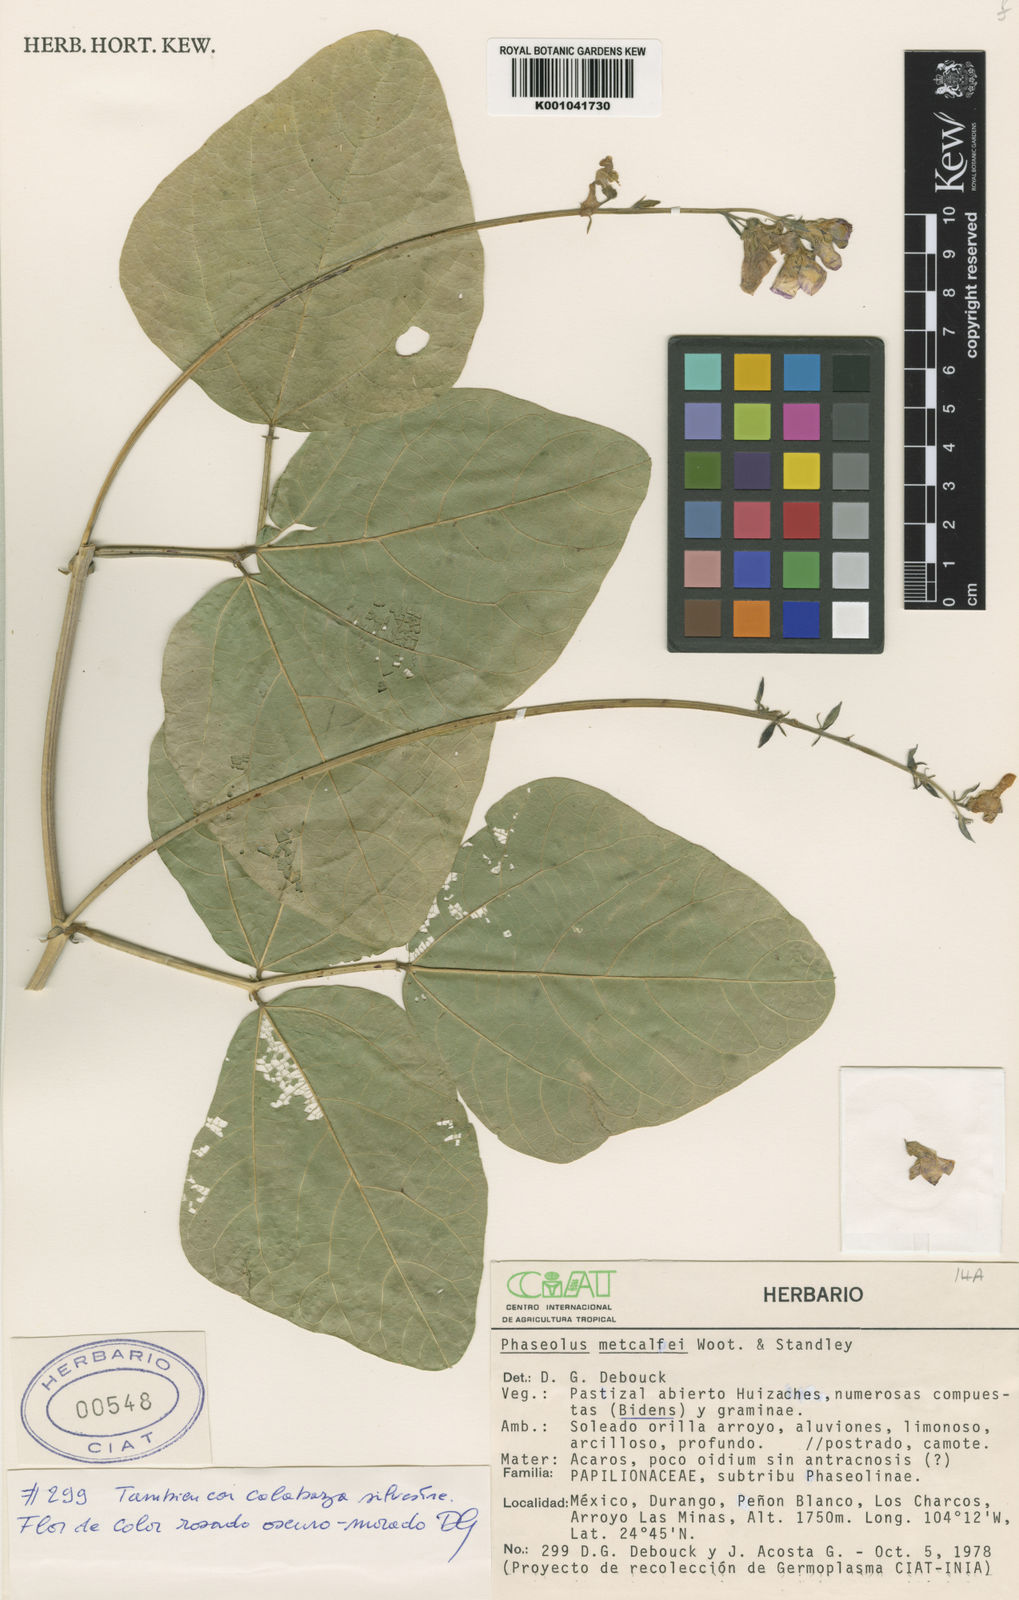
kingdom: Plantae
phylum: Tracheophyta
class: Magnoliopsida
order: Fabales
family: Fabaceae
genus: Phaseolus
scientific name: Phaseolus
